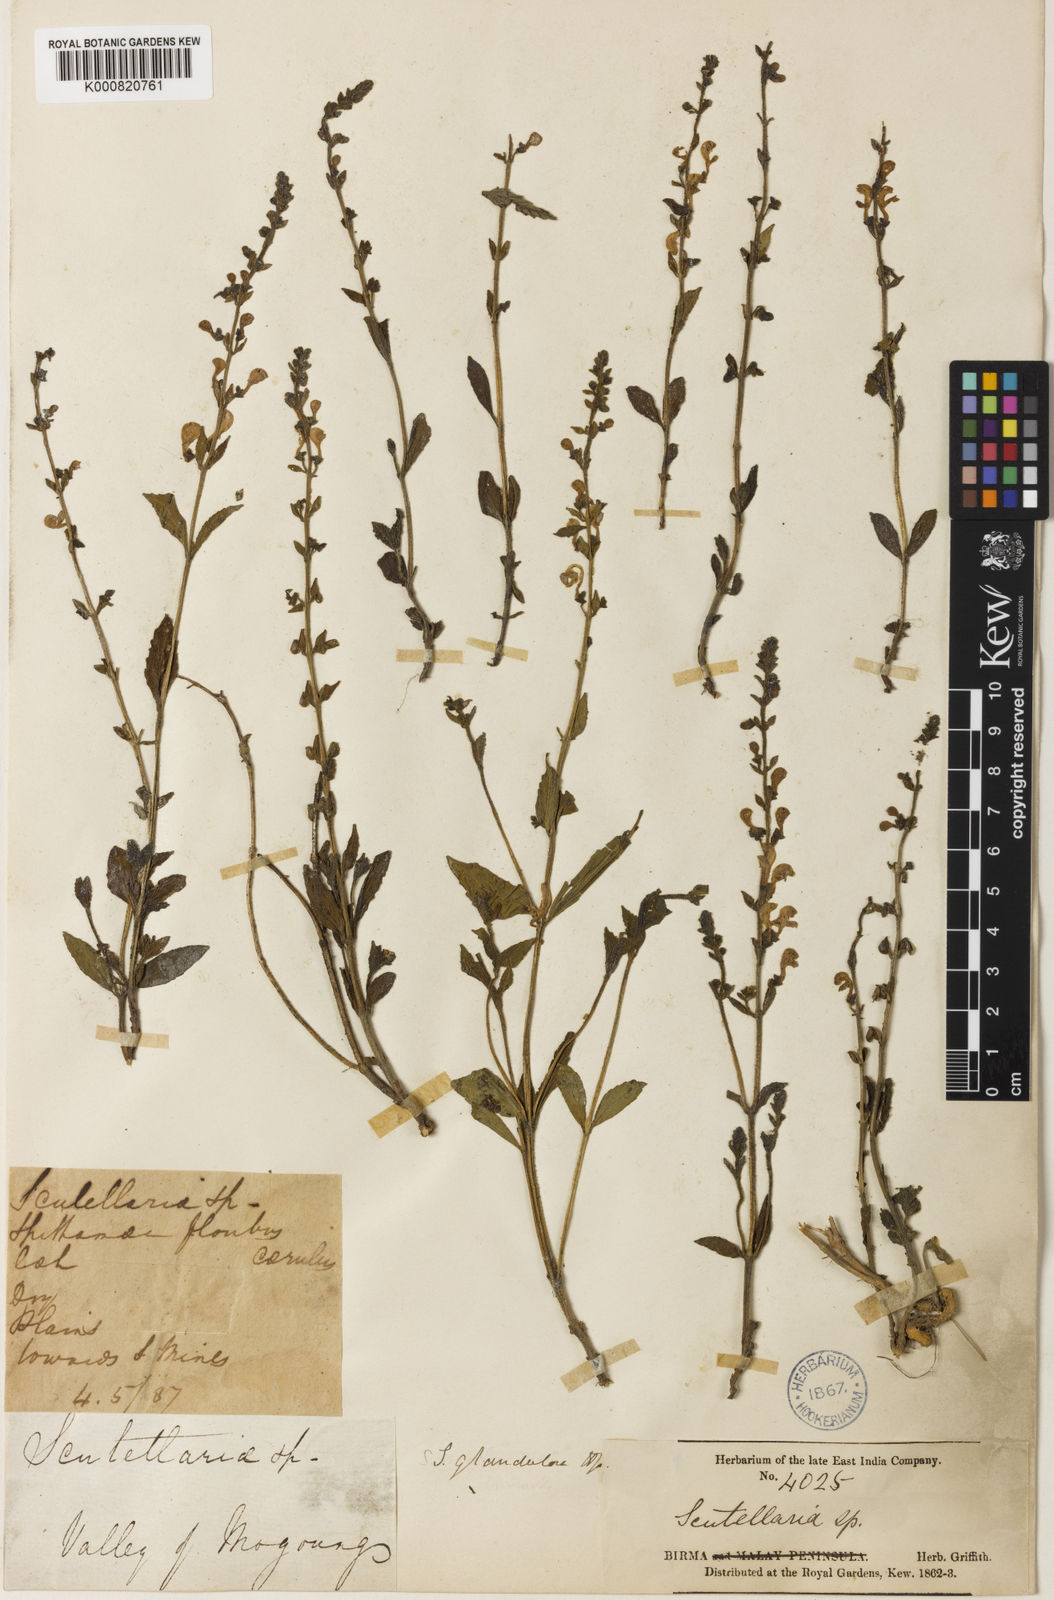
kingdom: Plantae
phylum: Tracheophyta
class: Magnoliopsida
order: Lamiales
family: Lamiaceae
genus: Scutellaria
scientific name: Scutellaria glandulosa
